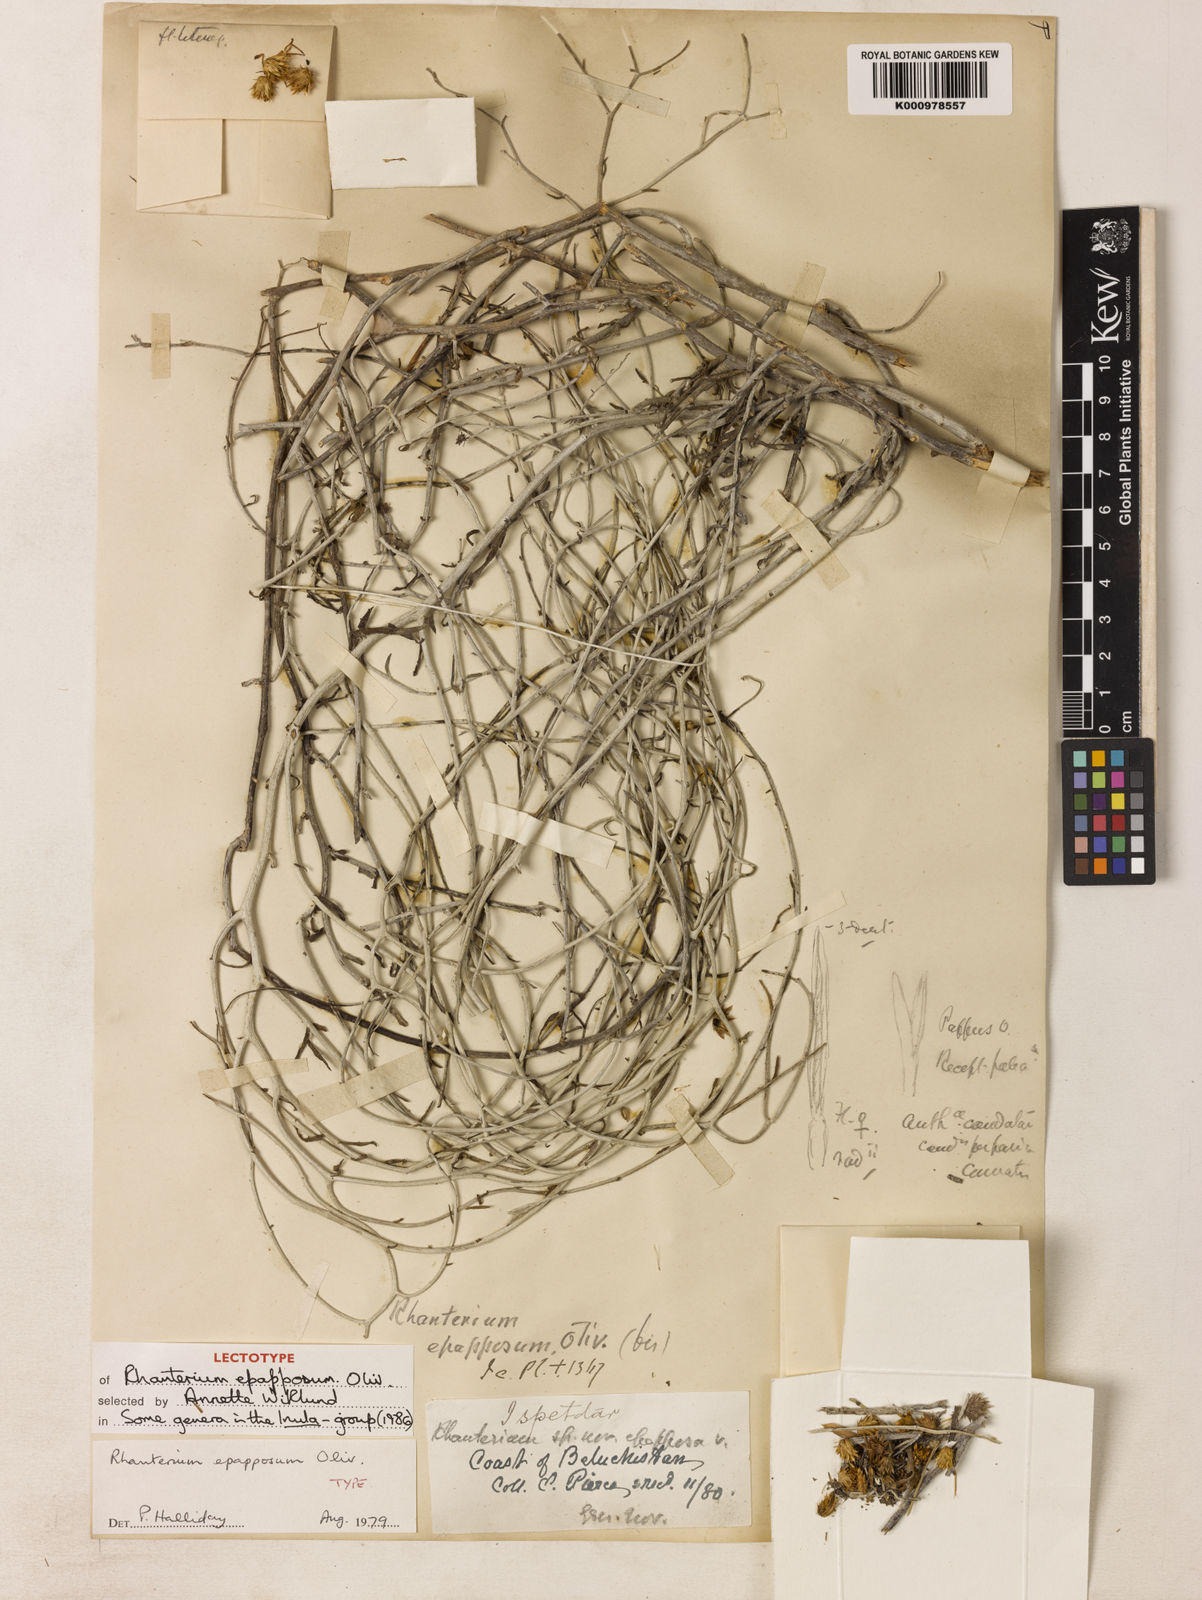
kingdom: Plantae
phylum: Tracheophyta
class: Magnoliopsida
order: Asterales
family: Asteraceae
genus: Rhanterium
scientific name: Rhanterium epapposum
